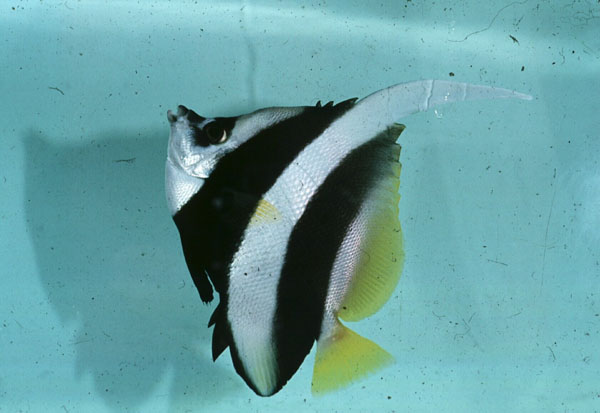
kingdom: Animalia
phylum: Chordata
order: Perciformes
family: Chaetodontidae
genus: Heniochus
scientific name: Heniochus acuminatus
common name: Pennant coralfish
